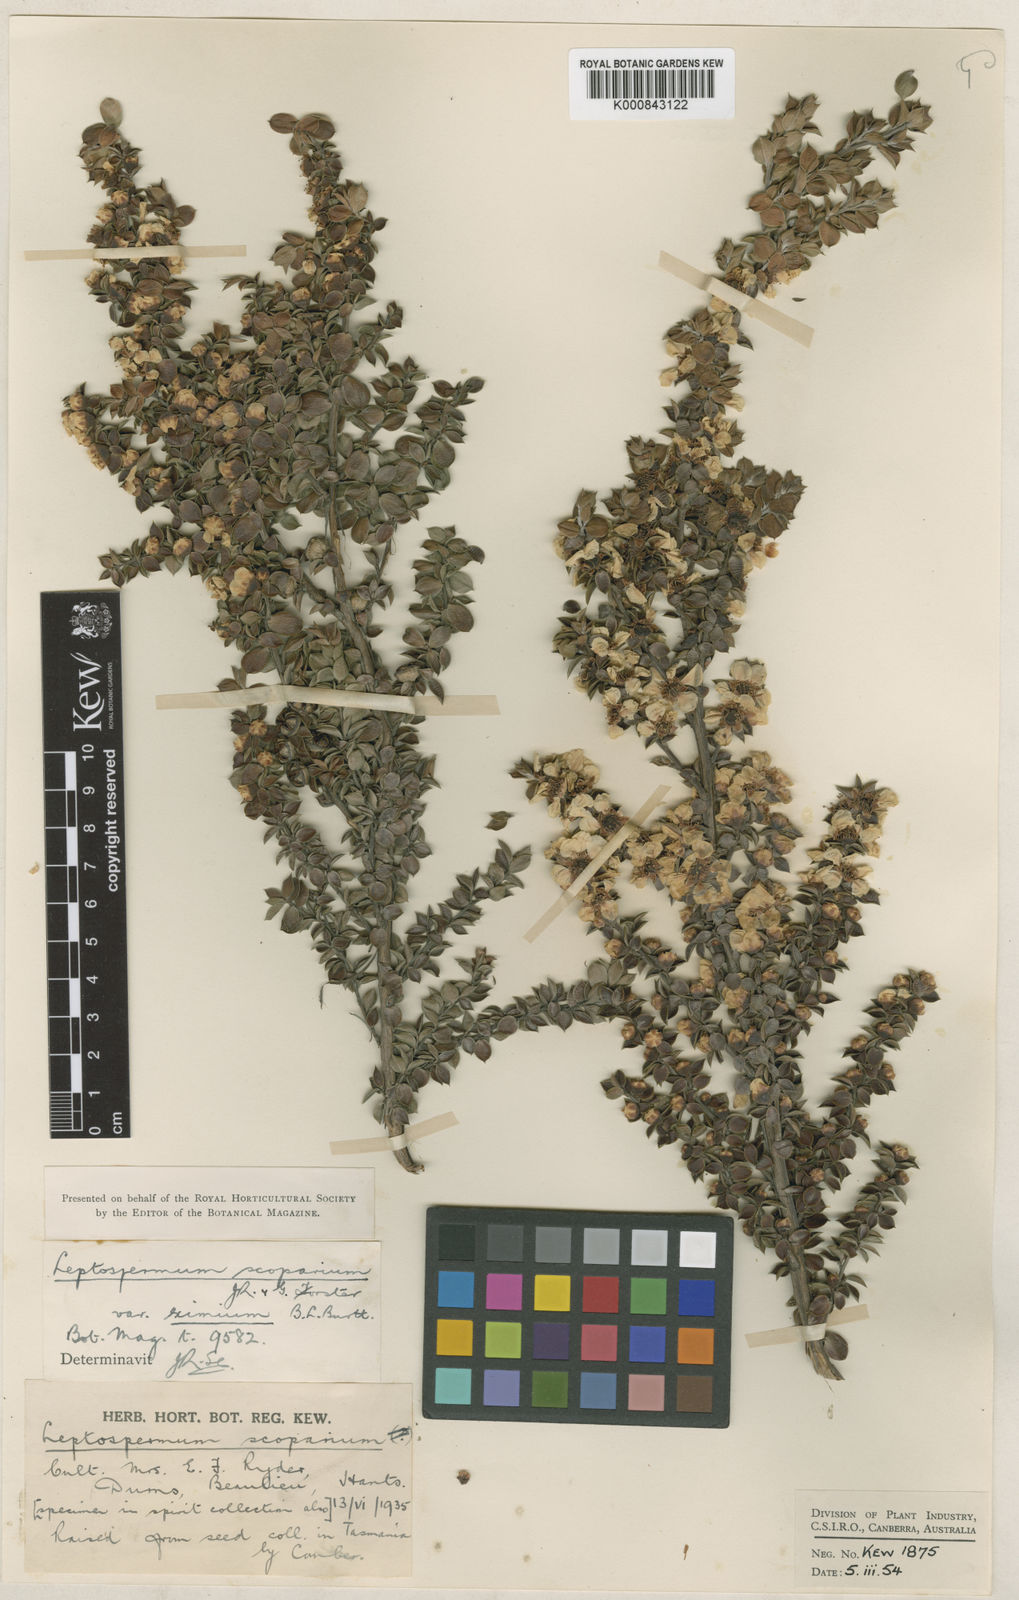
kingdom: Plantae
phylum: Tracheophyta
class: Magnoliopsida
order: Myrtales
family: Myrtaceae
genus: Leptospermum
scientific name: Leptospermum scoparium
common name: Broom tea-tree
